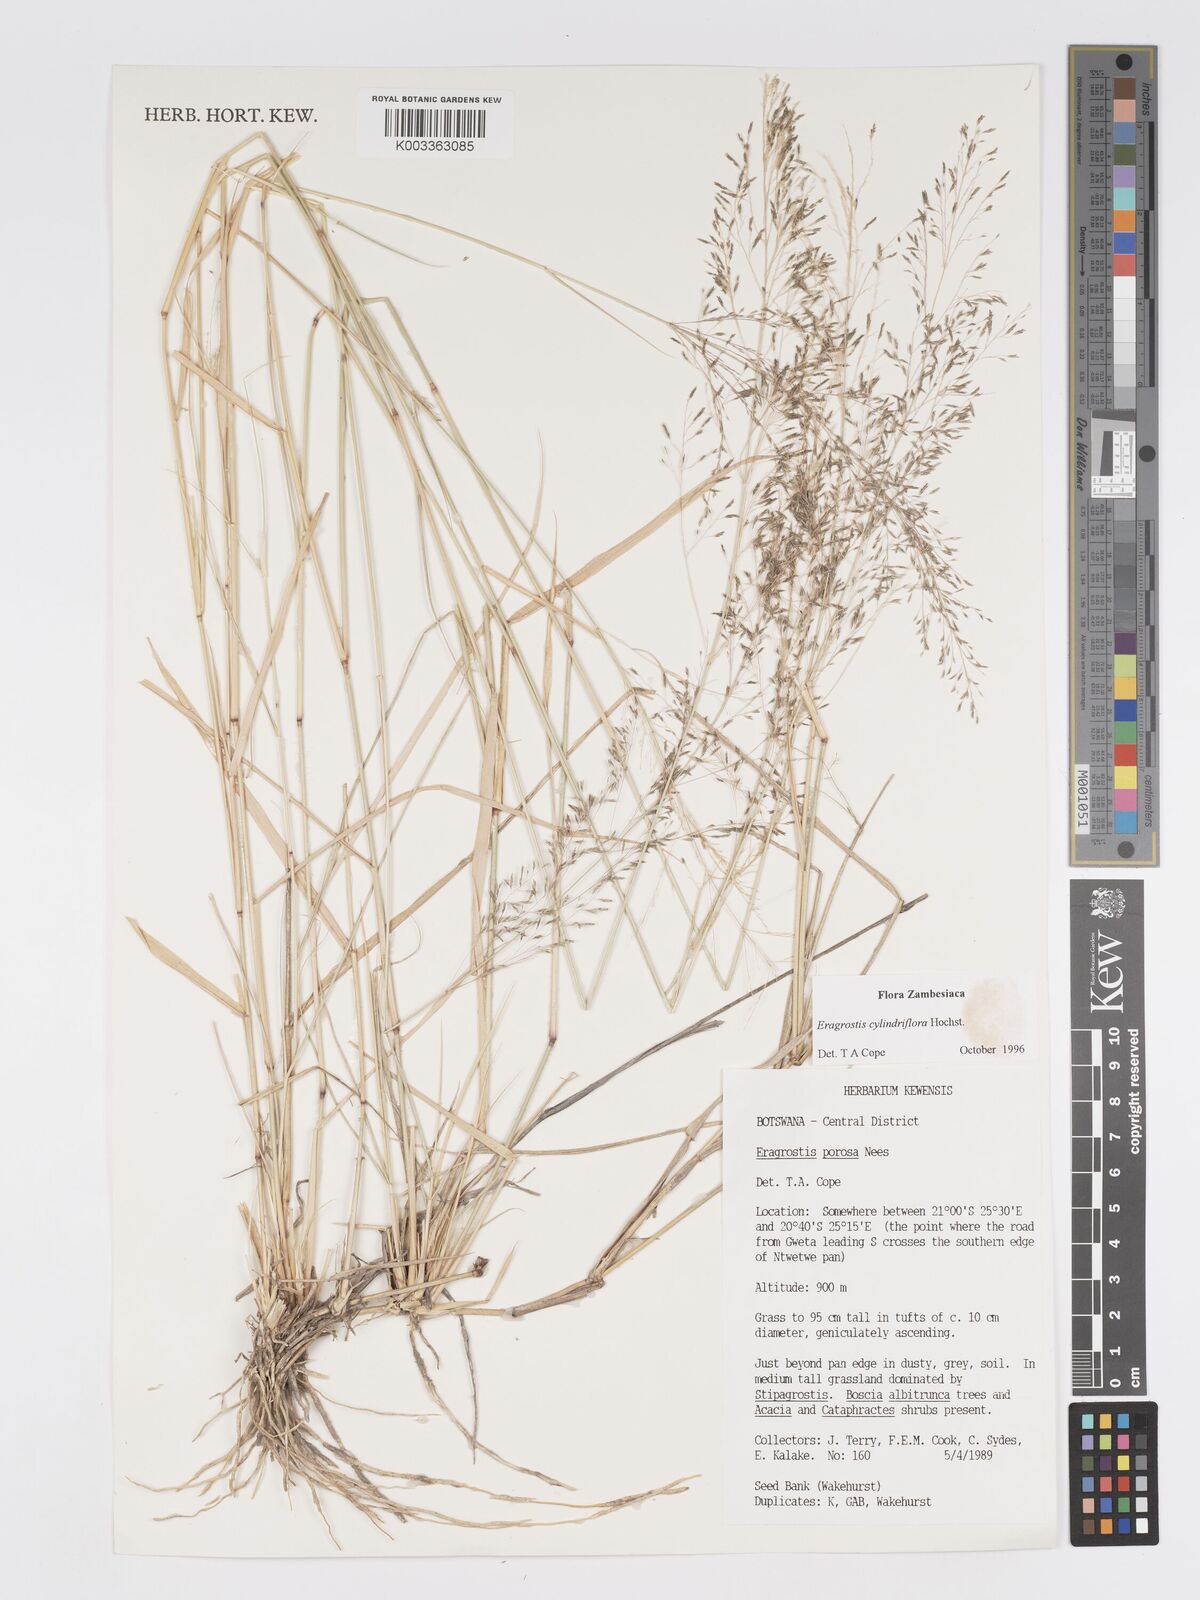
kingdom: Plantae
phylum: Tracheophyta
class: Liliopsida
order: Poales
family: Poaceae
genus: Eragrostis
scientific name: Eragrostis cylindriflora
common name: Cylinderflower lovegrass
